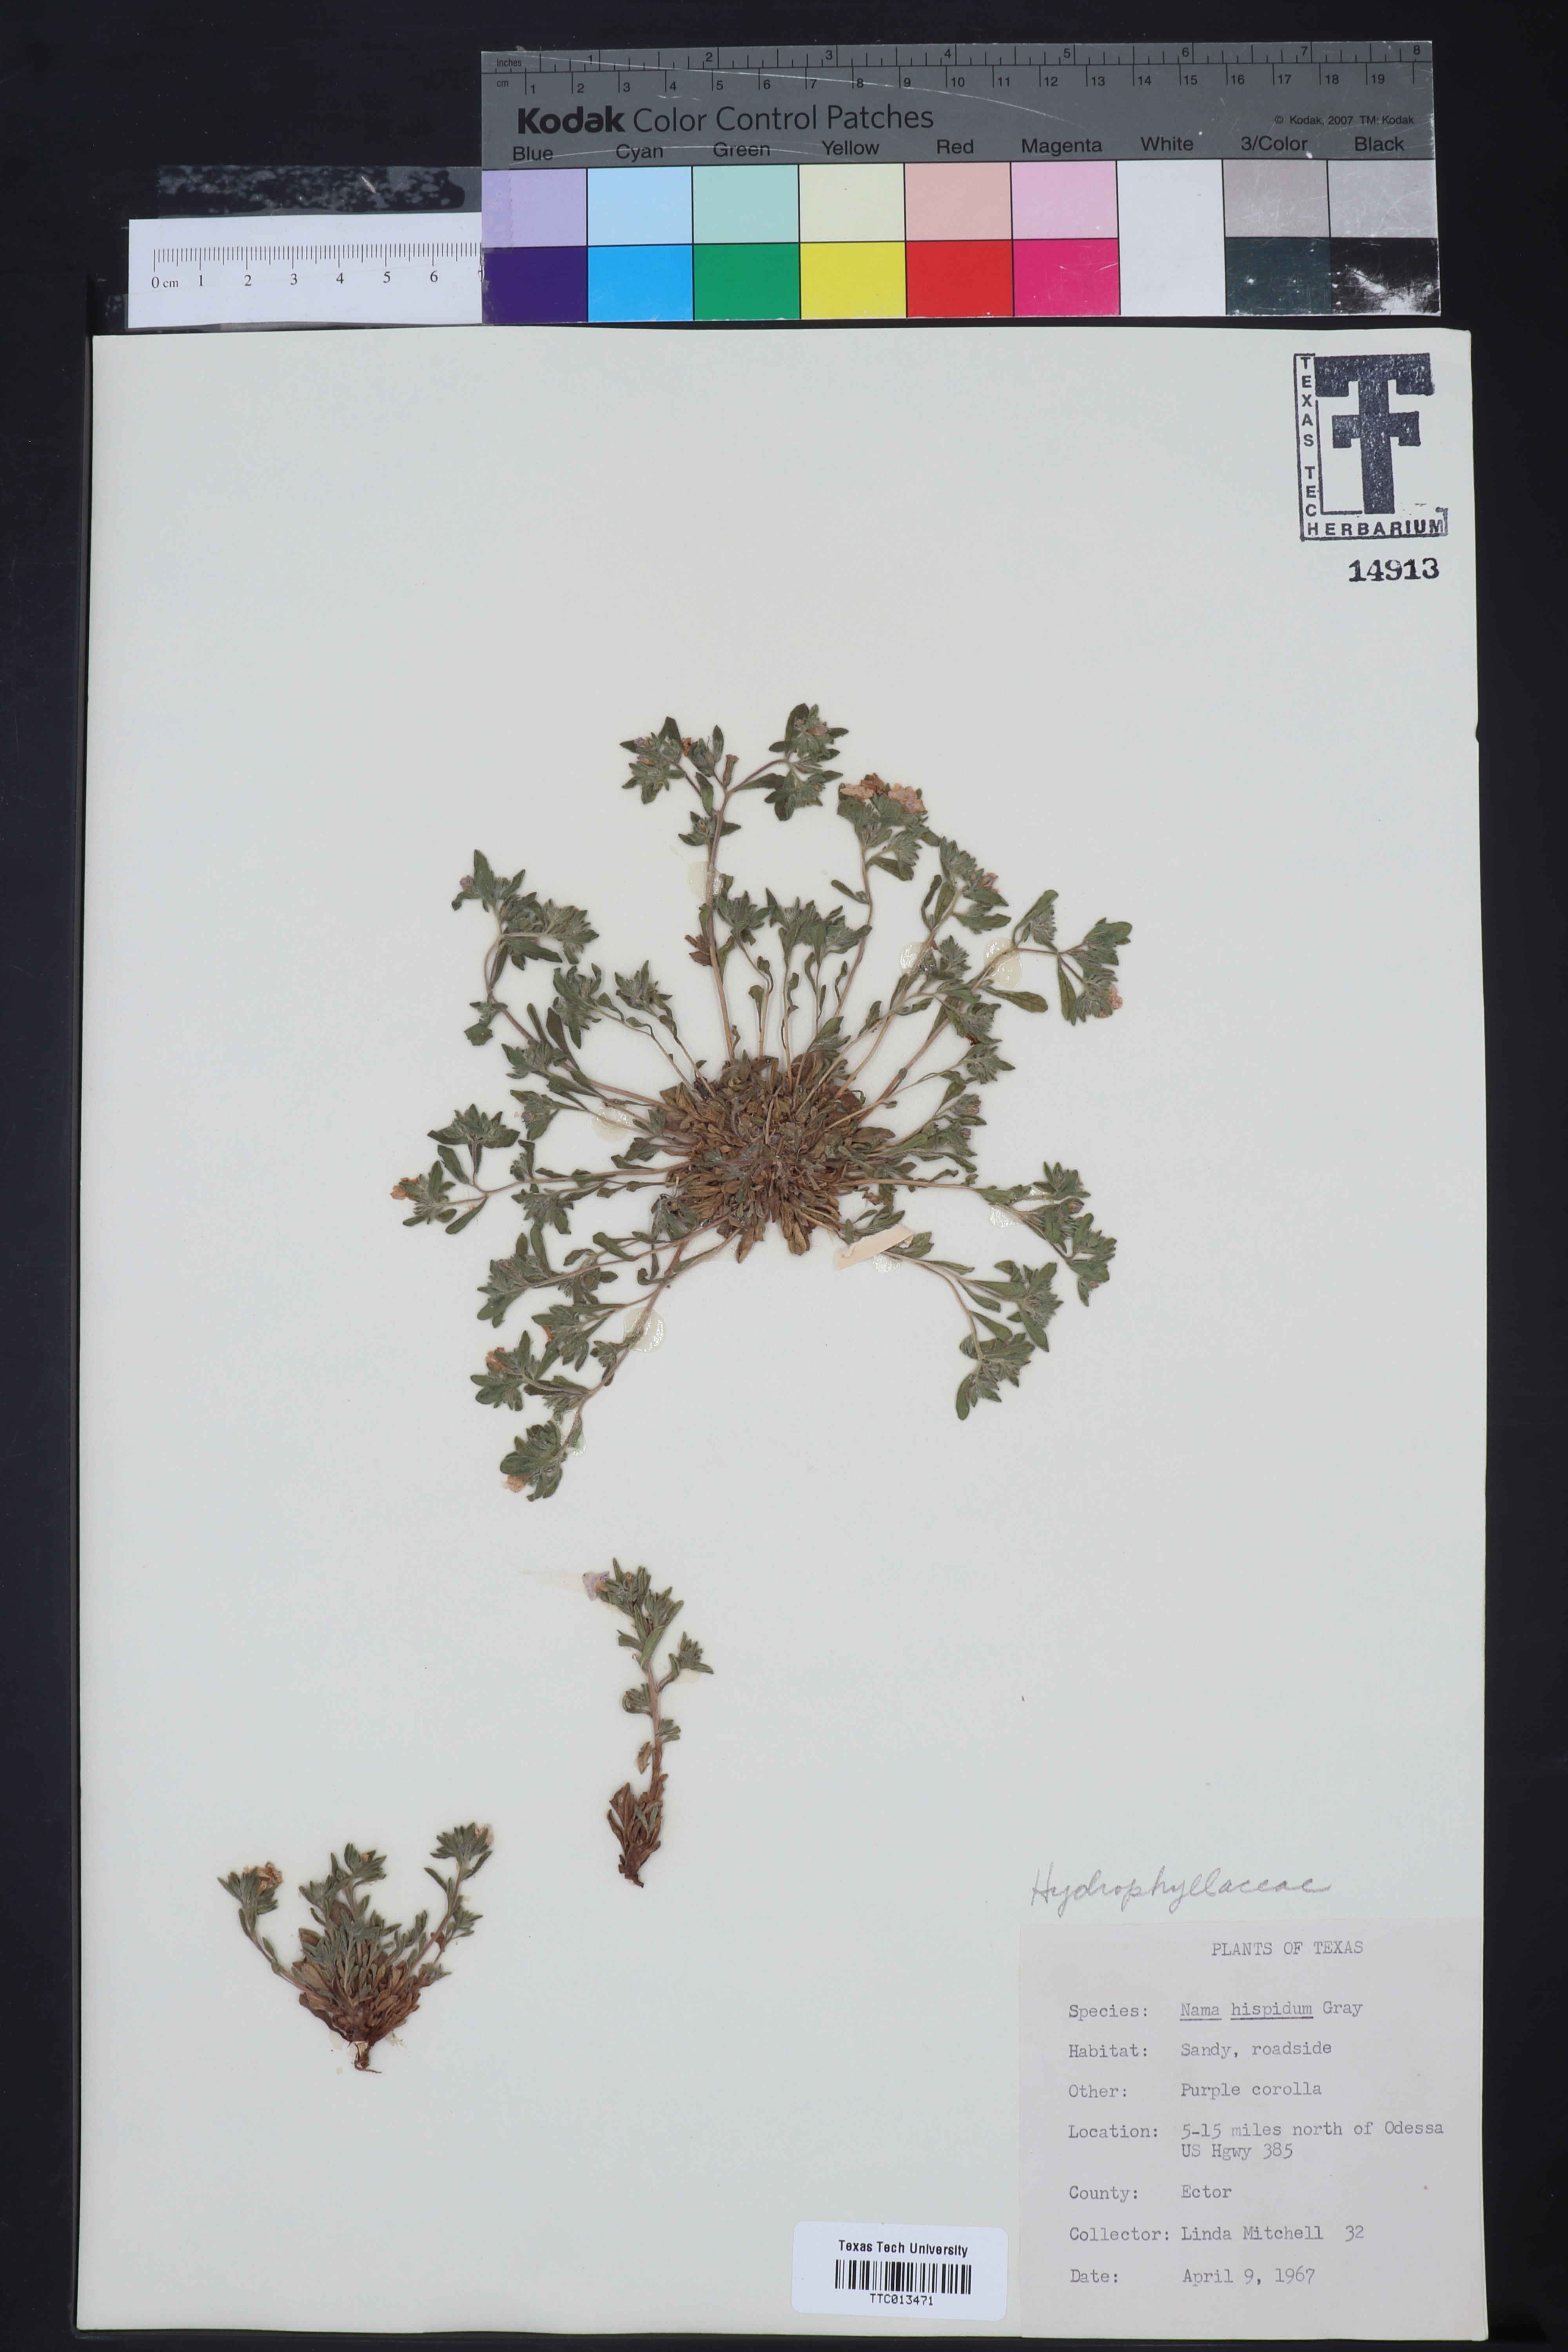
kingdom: Plantae
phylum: Tracheophyta
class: Magnoliopsida
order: Boraginales
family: Namaceae
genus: Nama
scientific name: Nama hispida
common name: Bristly nama
